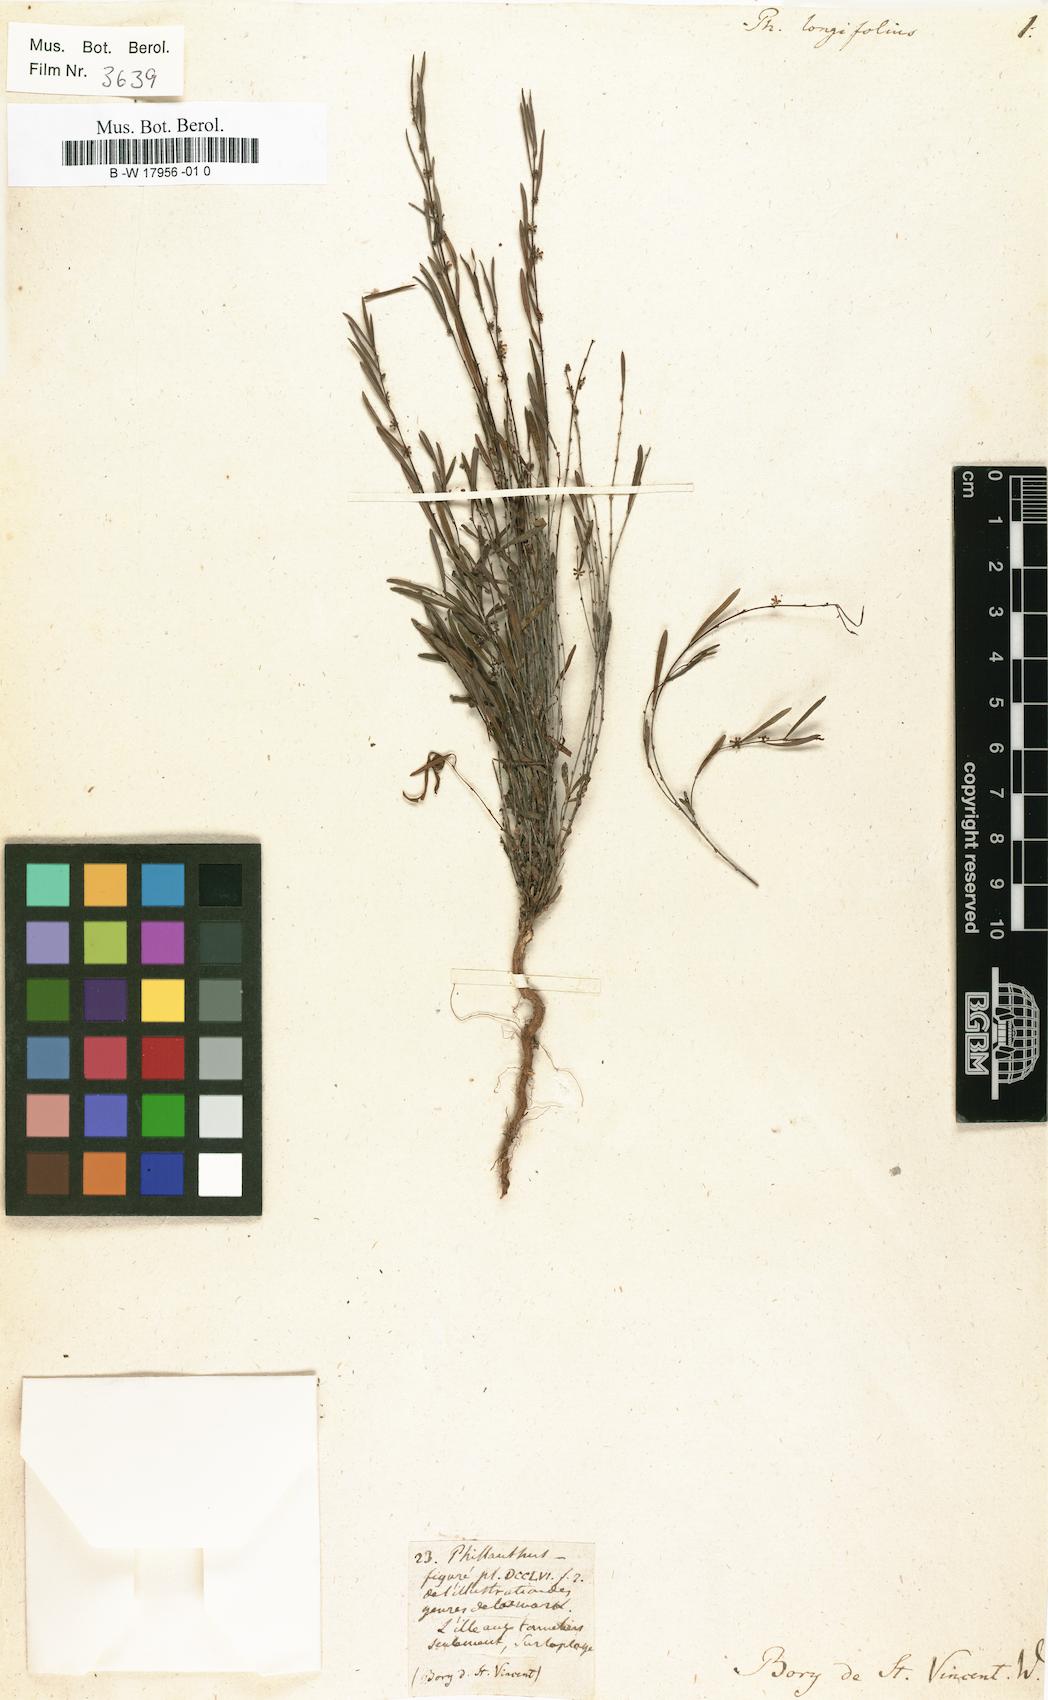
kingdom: Plantae
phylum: Tracheophyta
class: Magnoliopsida
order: Malpighiales
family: Phyllanthaceae
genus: Phyllanthus
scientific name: Phyllanthus longifolius
